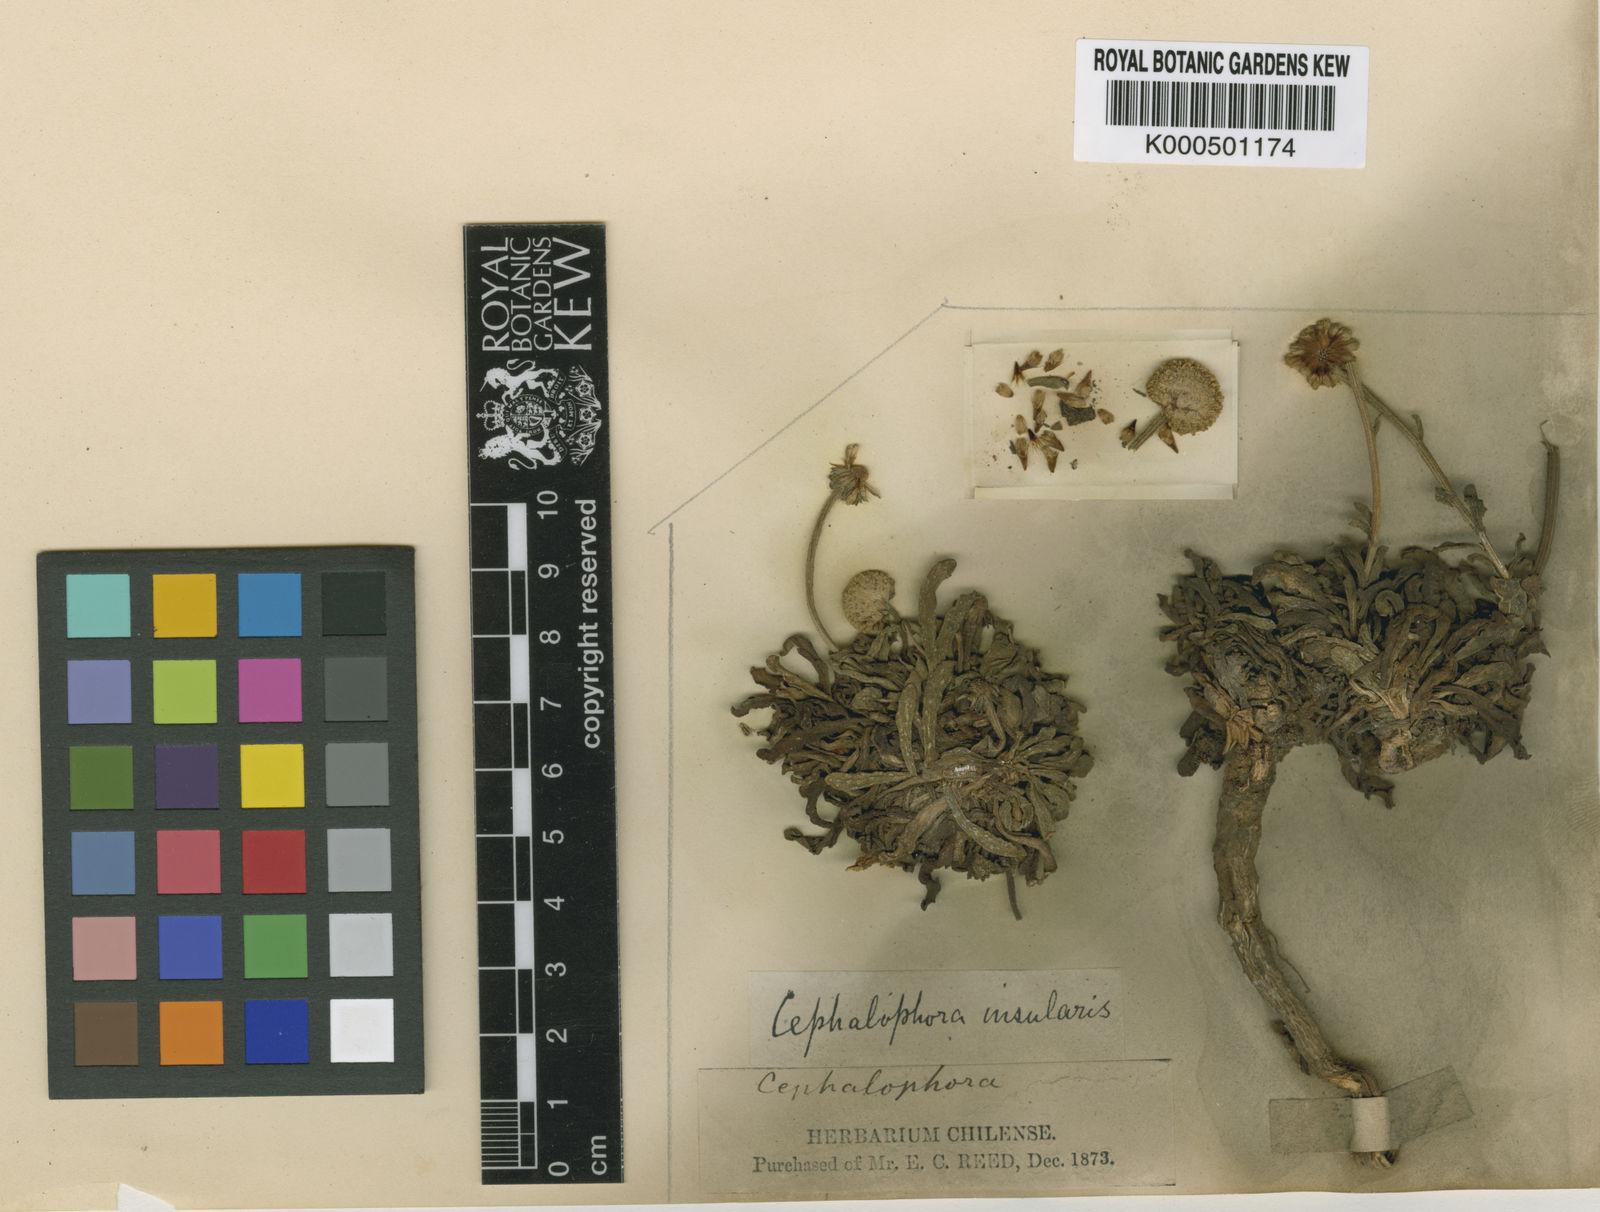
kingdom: Plantae
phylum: Tracheophyta
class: Magnoliopsida
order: Asterales
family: Asteraceae
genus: Helenium
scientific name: Helenium insulare
